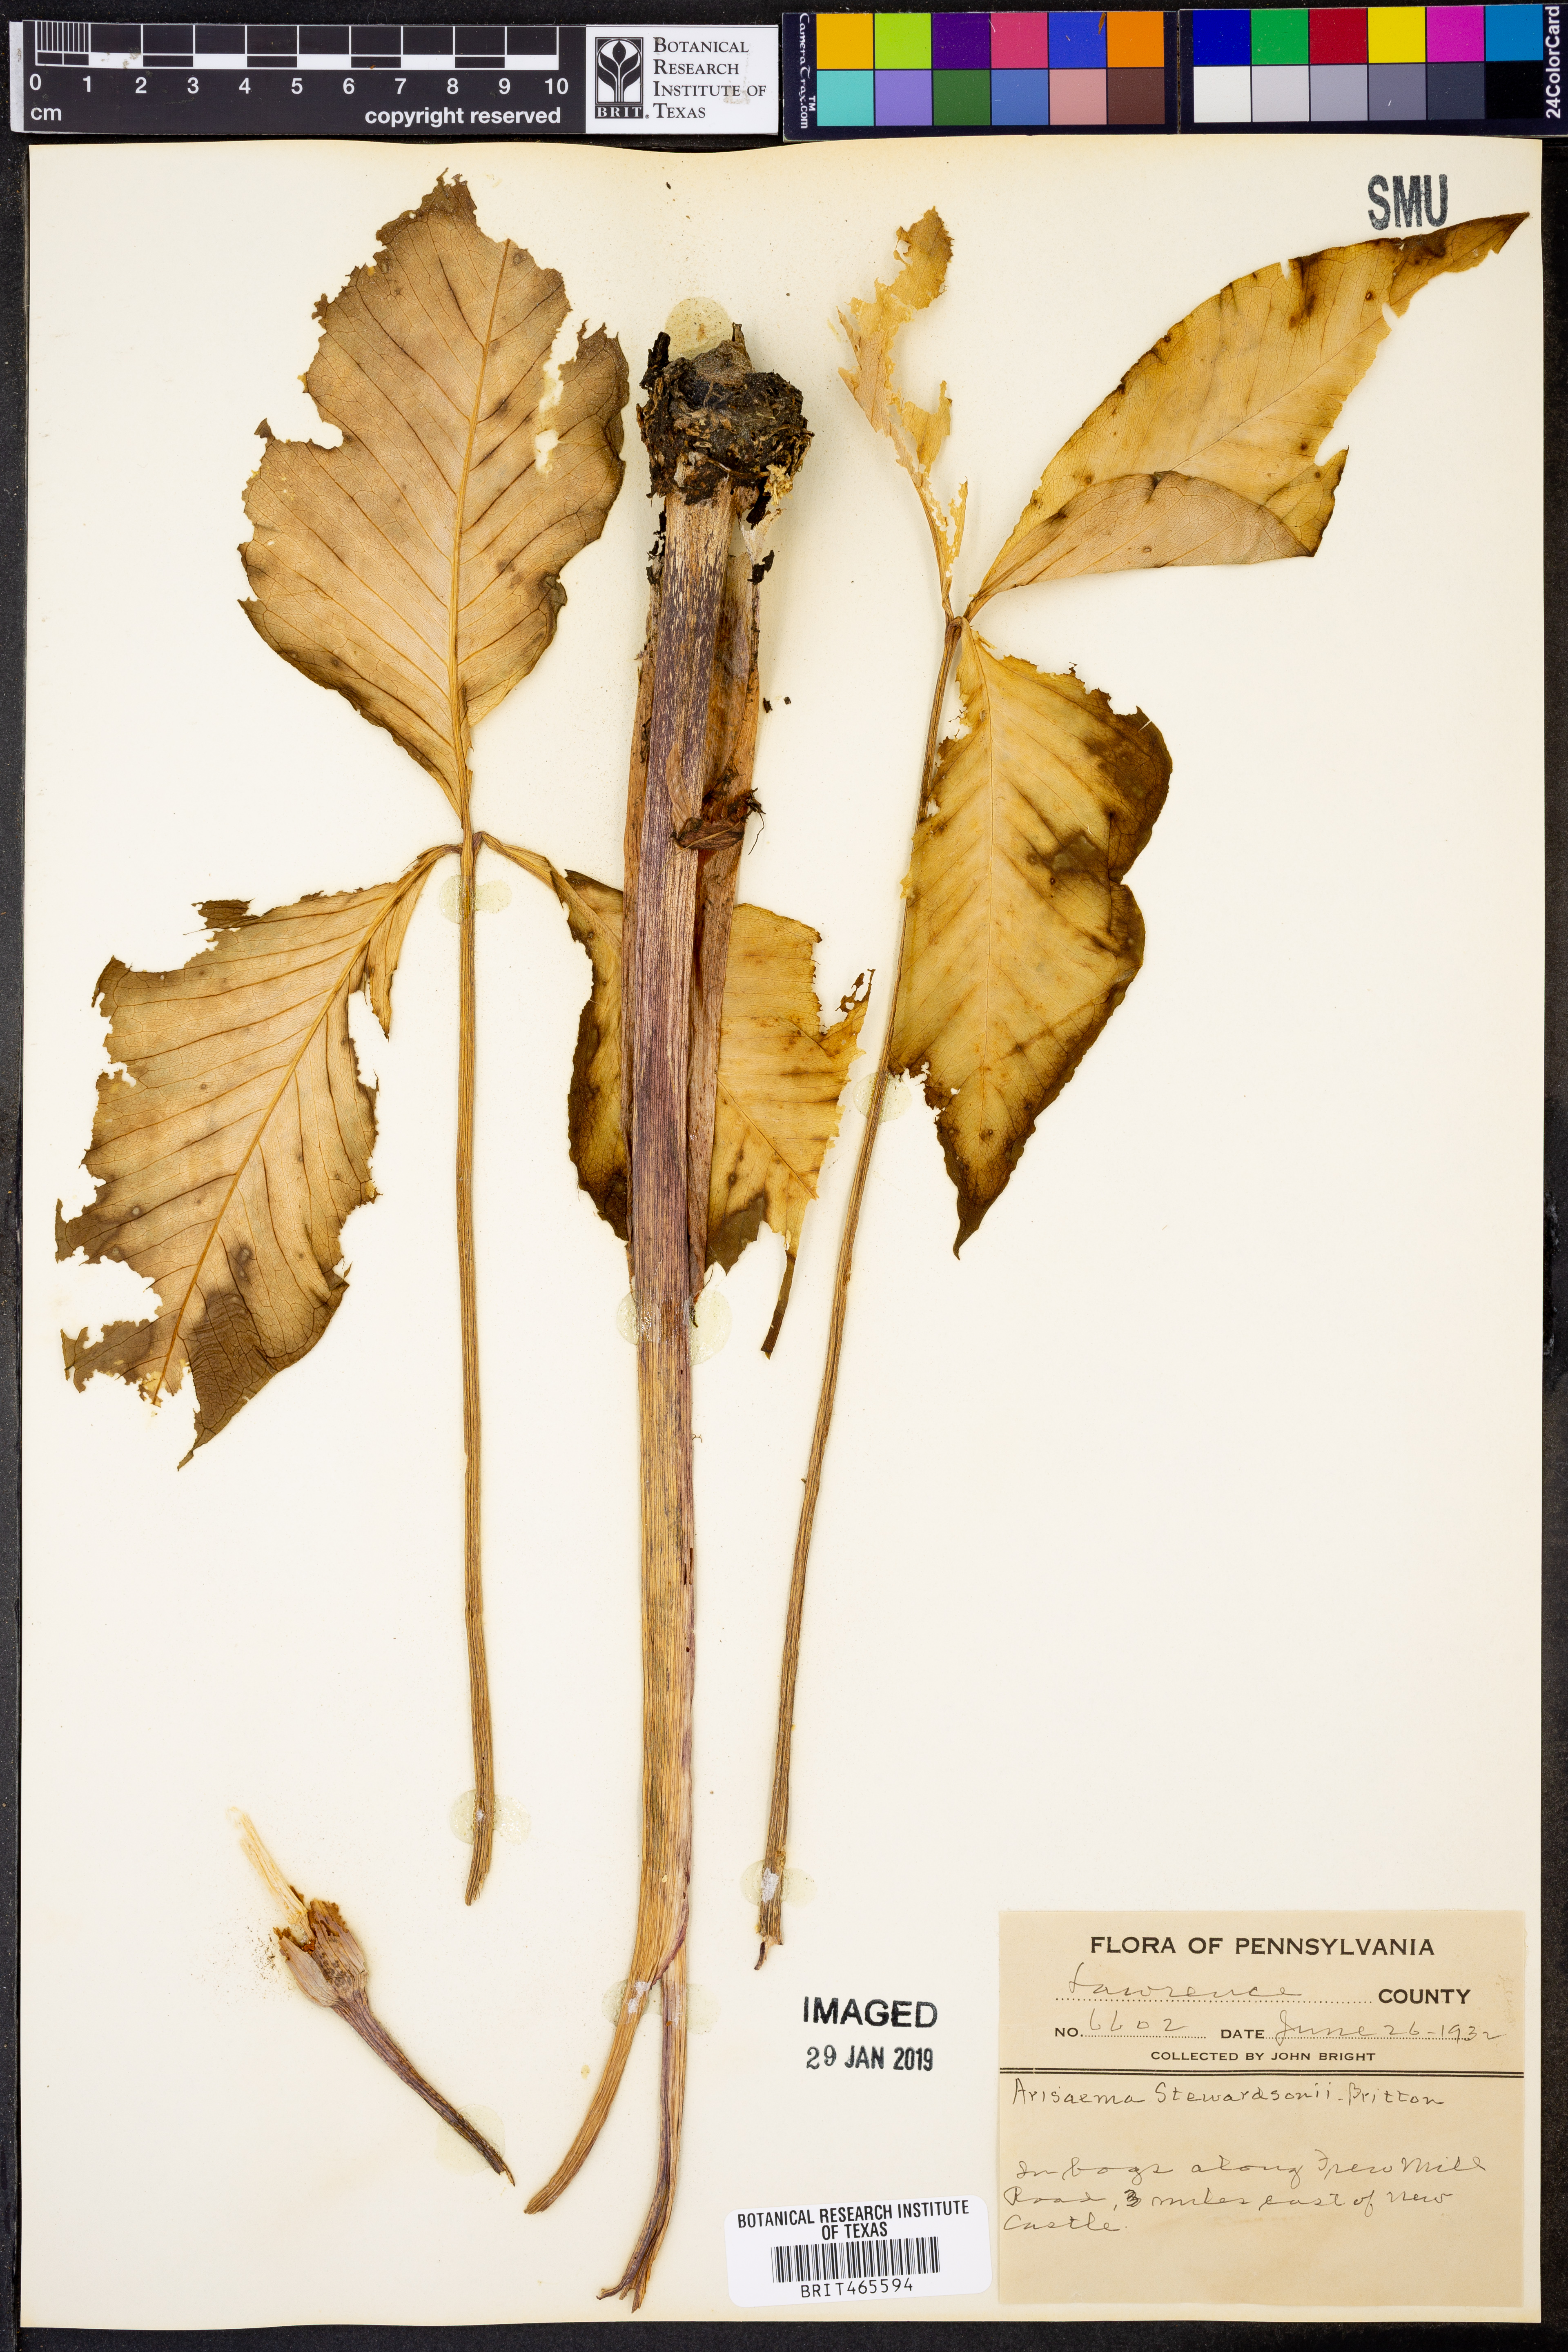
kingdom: Plantae
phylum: Tracheophyta
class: Liliopsida
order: Alismatales
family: Araceae
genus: Arisaema
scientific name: Arisaema stewardsonii
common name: Swamp jack-in-the-pulpit
